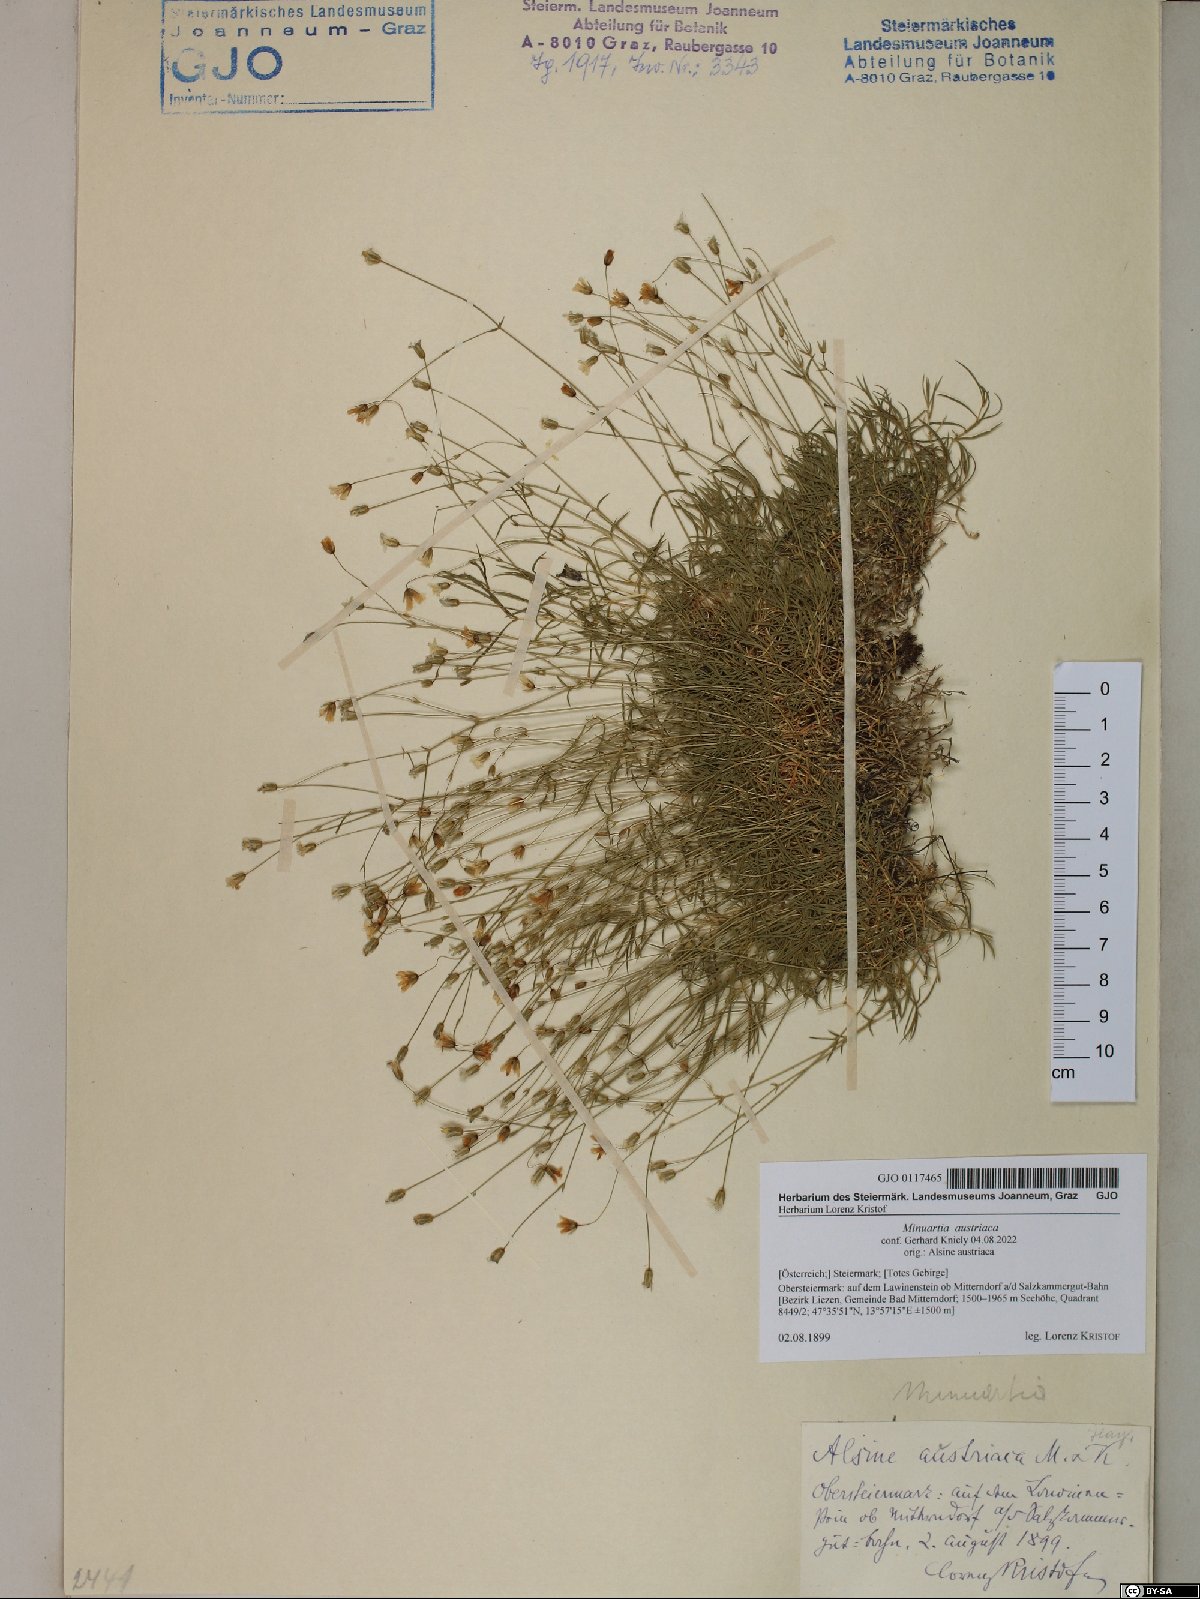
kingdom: Plantae
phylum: Tracheophyta
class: Magnoliopsida
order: Caryophyllales
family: Caryophyllaceae
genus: Sabulina
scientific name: Sabulina austriaca
